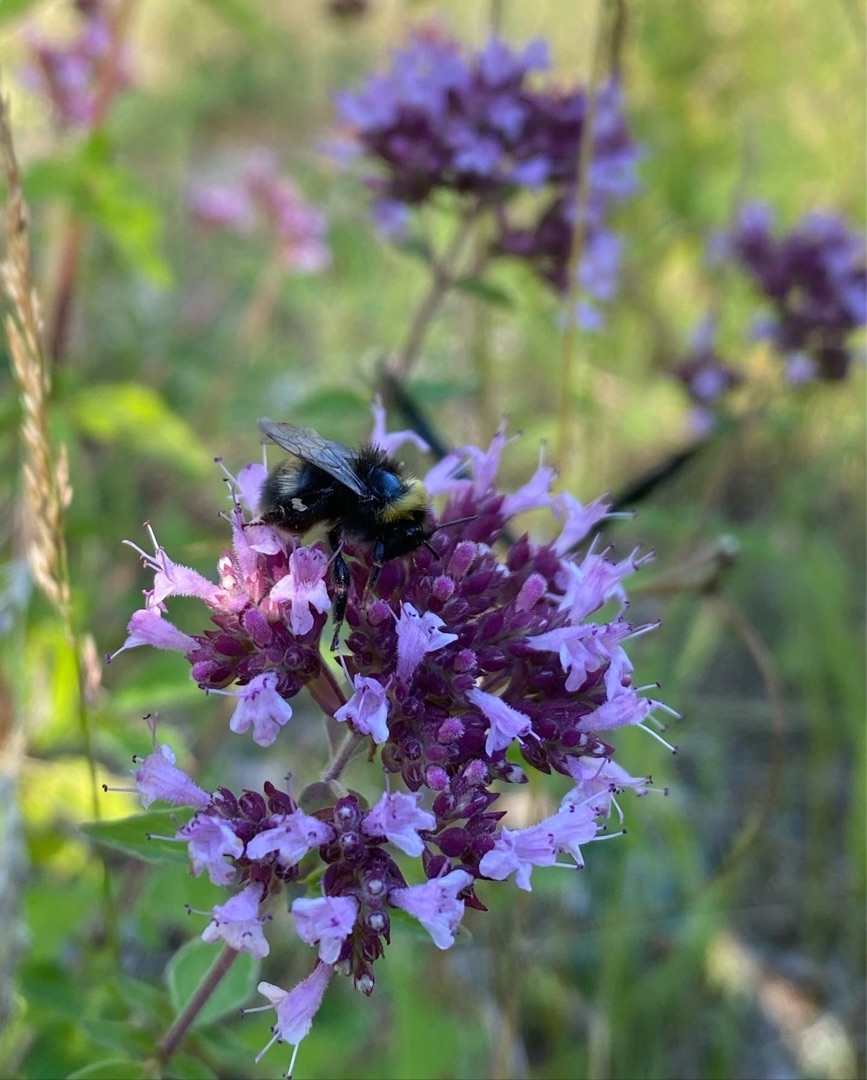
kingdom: Plantae
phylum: Tracheophyta
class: Magnoliopsida
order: Lamiales
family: Lamiaceae
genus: Origanum
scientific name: Origanum vulgare
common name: Merian
